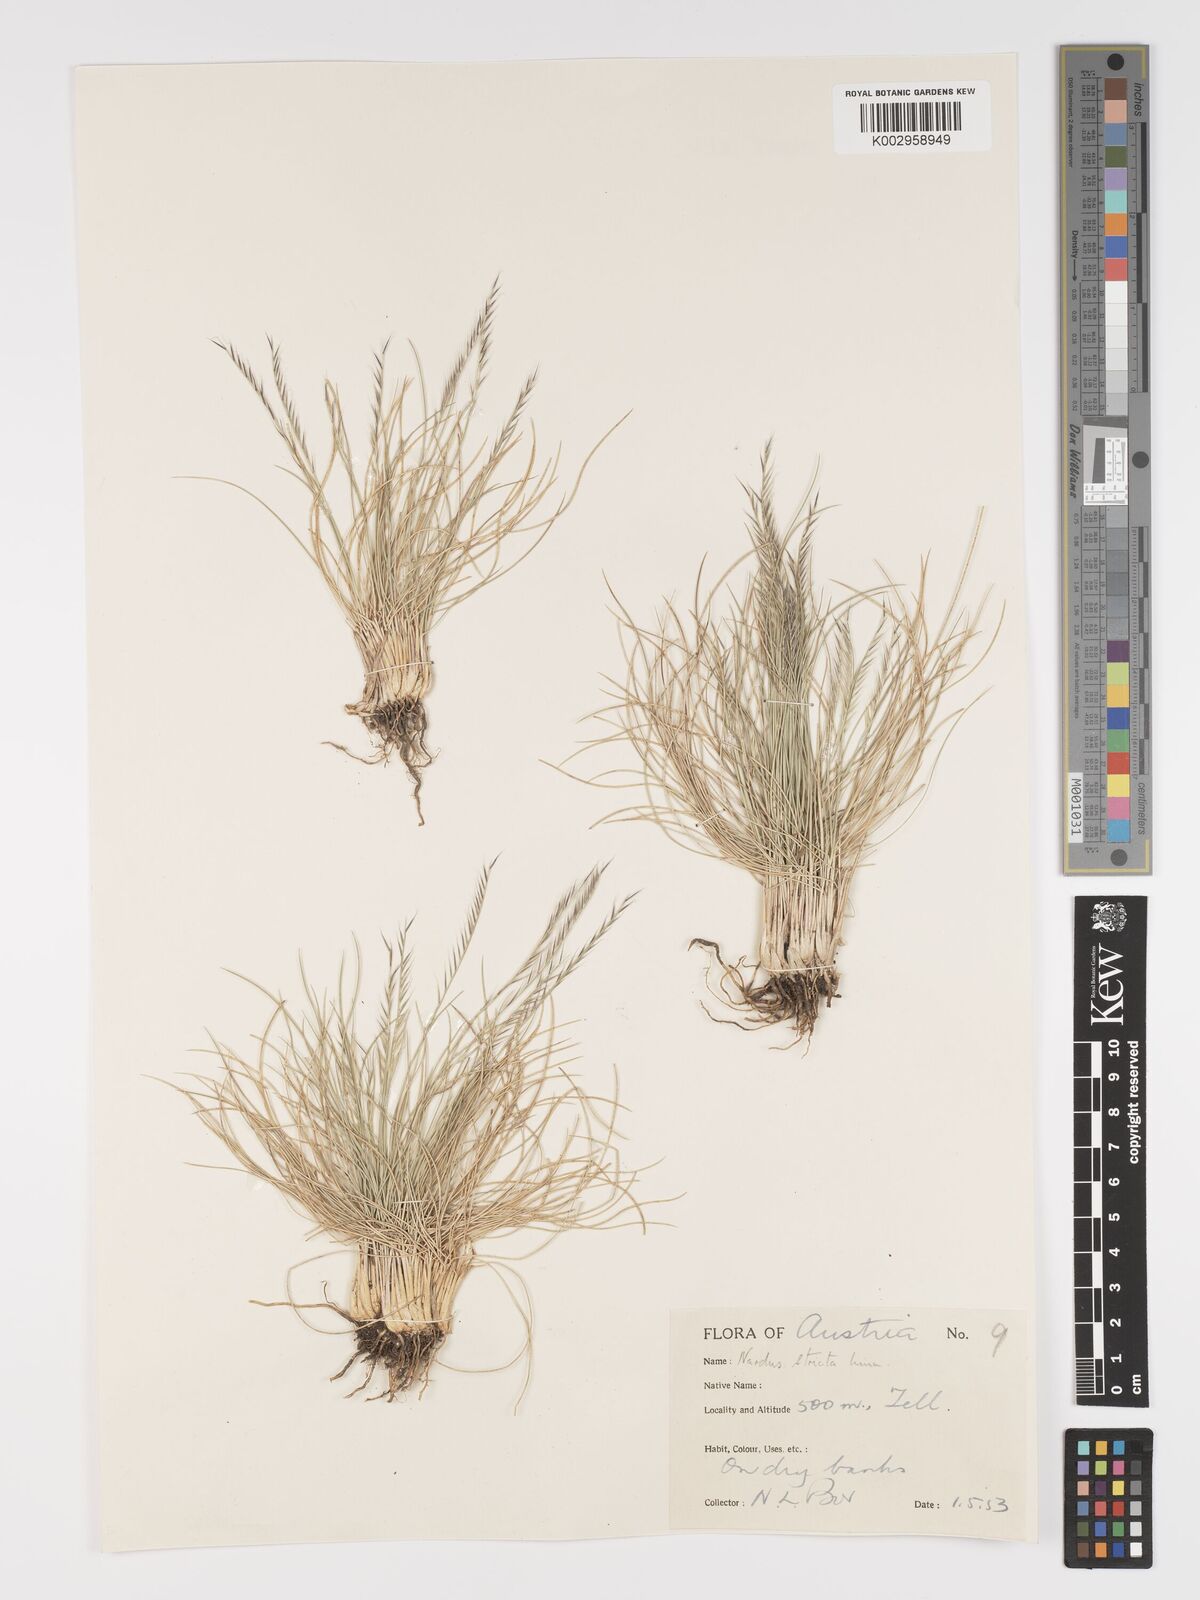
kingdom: Plantae
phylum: Tracheophyta
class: Liliopsida
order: Poales
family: Poaceae
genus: Nardus
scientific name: Nardus stricta
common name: Mat-grass
